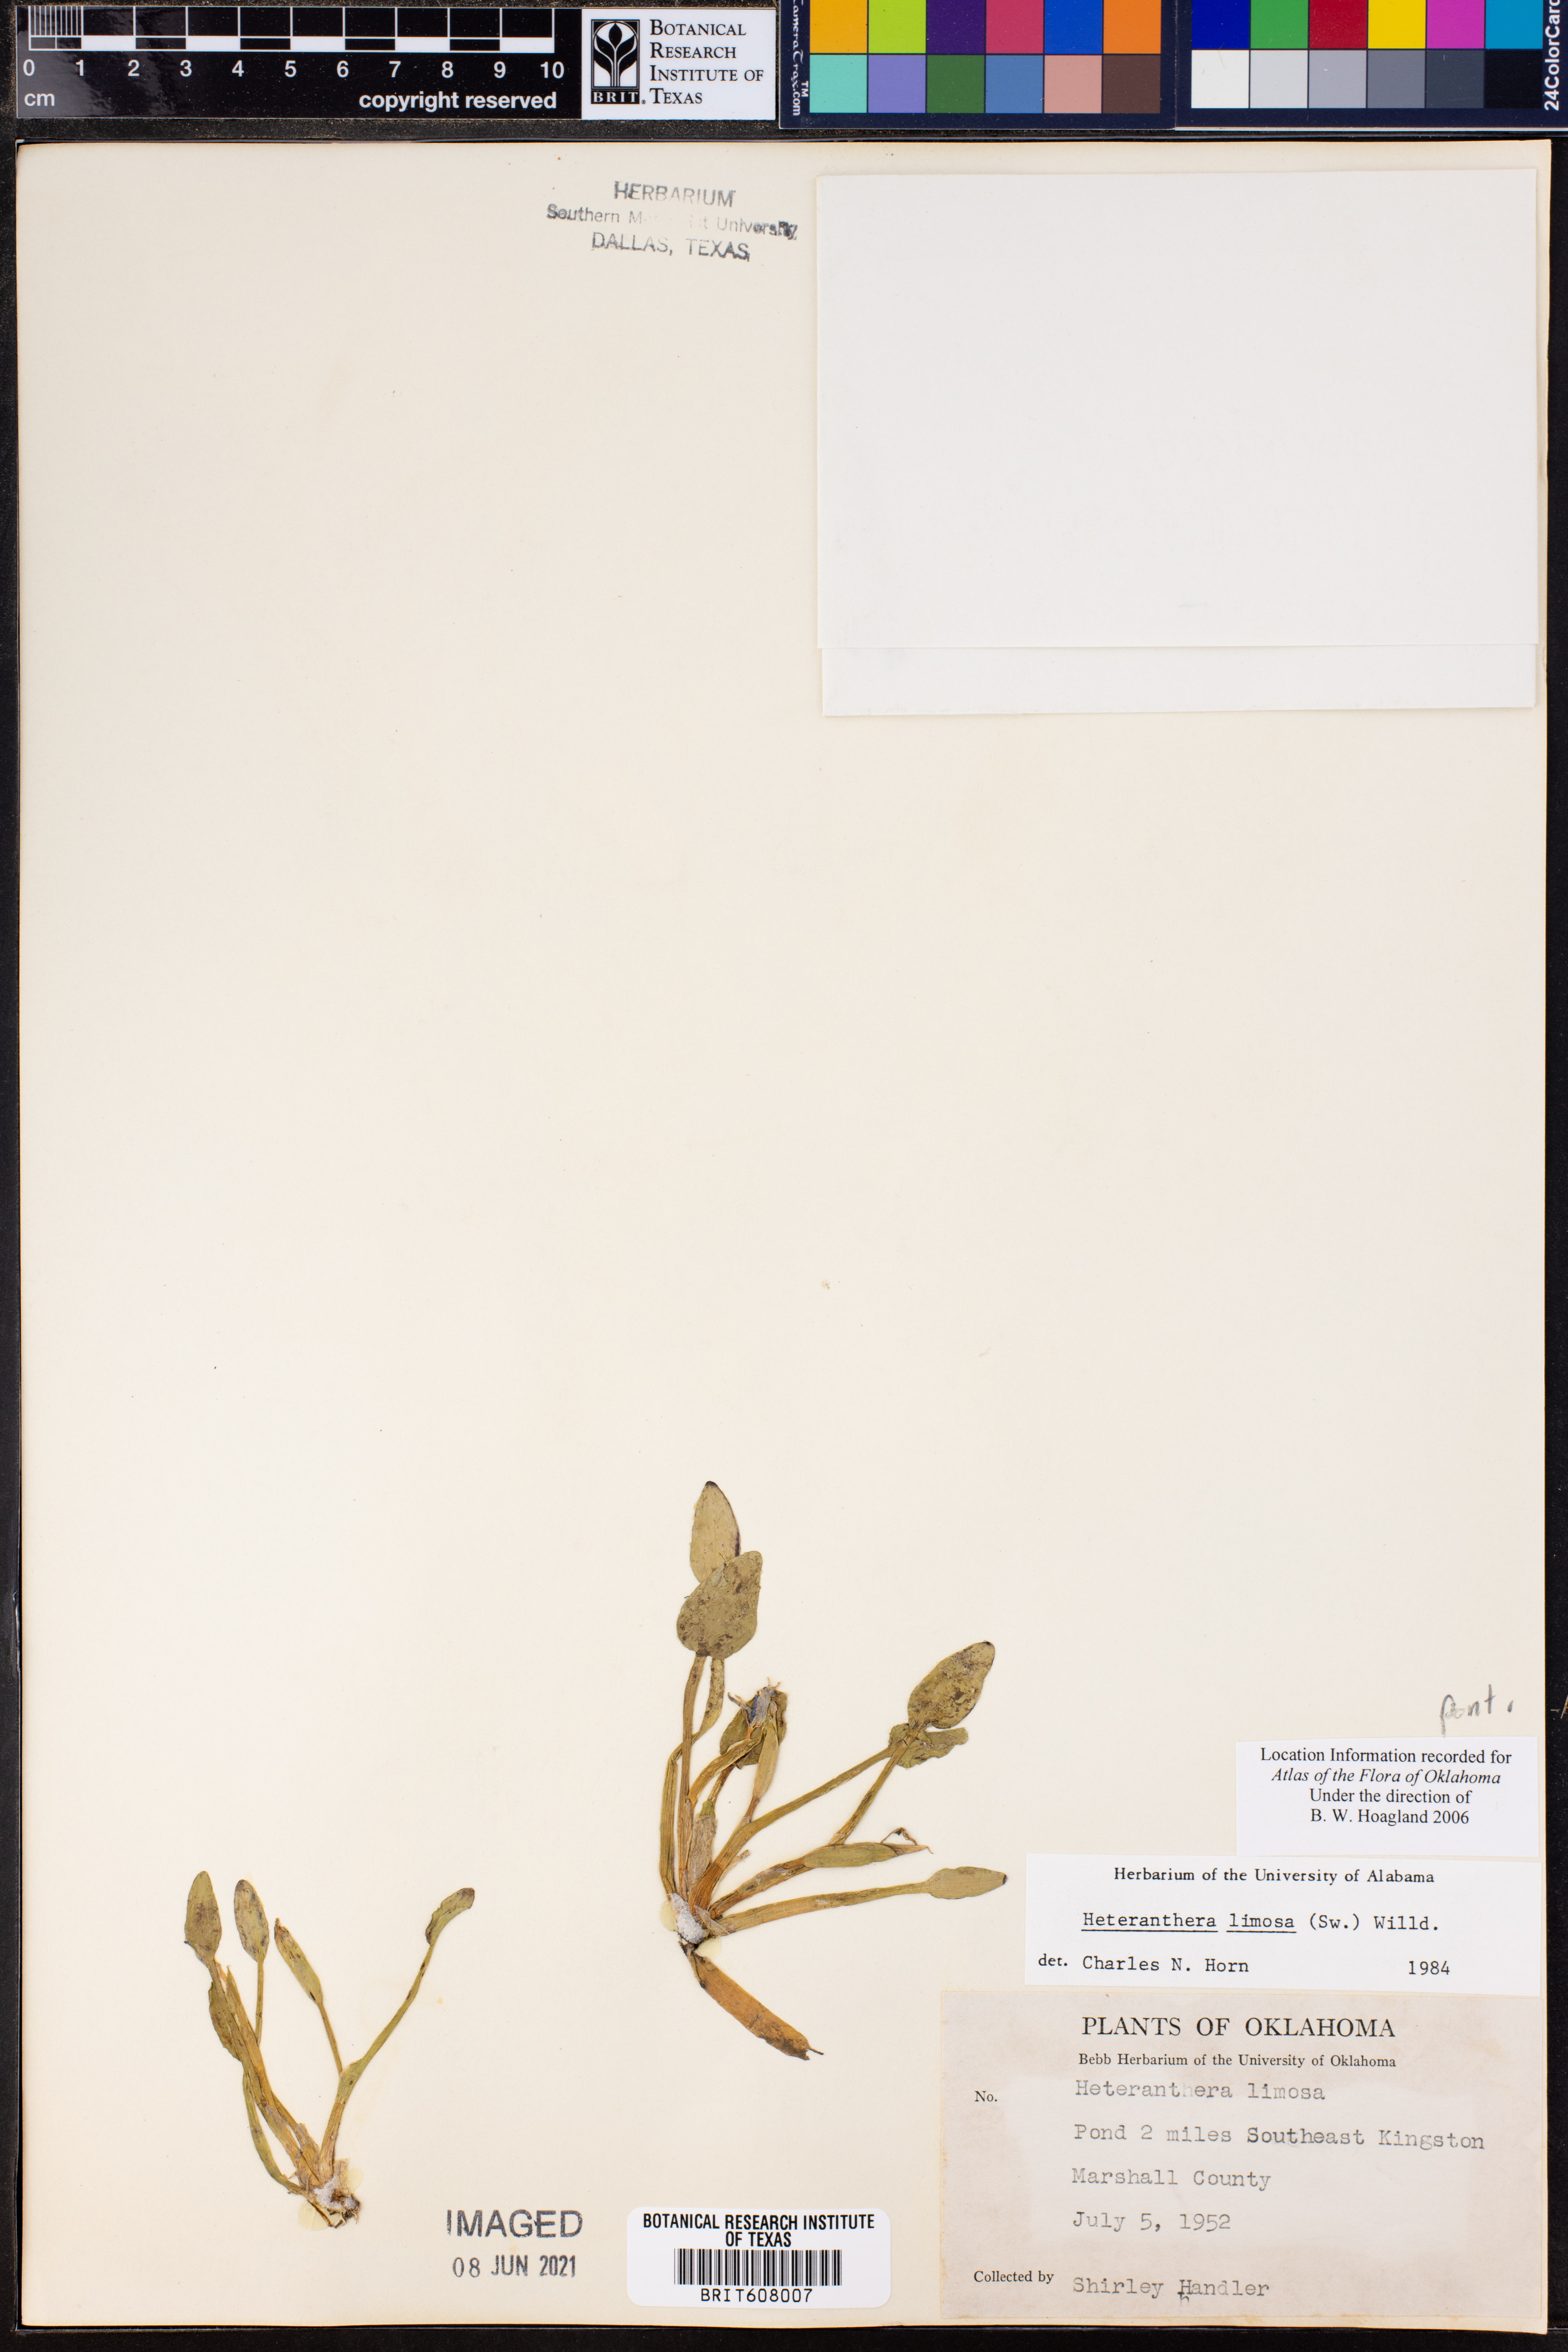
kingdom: Plantae
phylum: Tracheophyta
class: Liliopsida
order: Commelinales
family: Pontederiaceae
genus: Heteranthera
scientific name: Heteranthera limosa
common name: Blue mud-plantain
